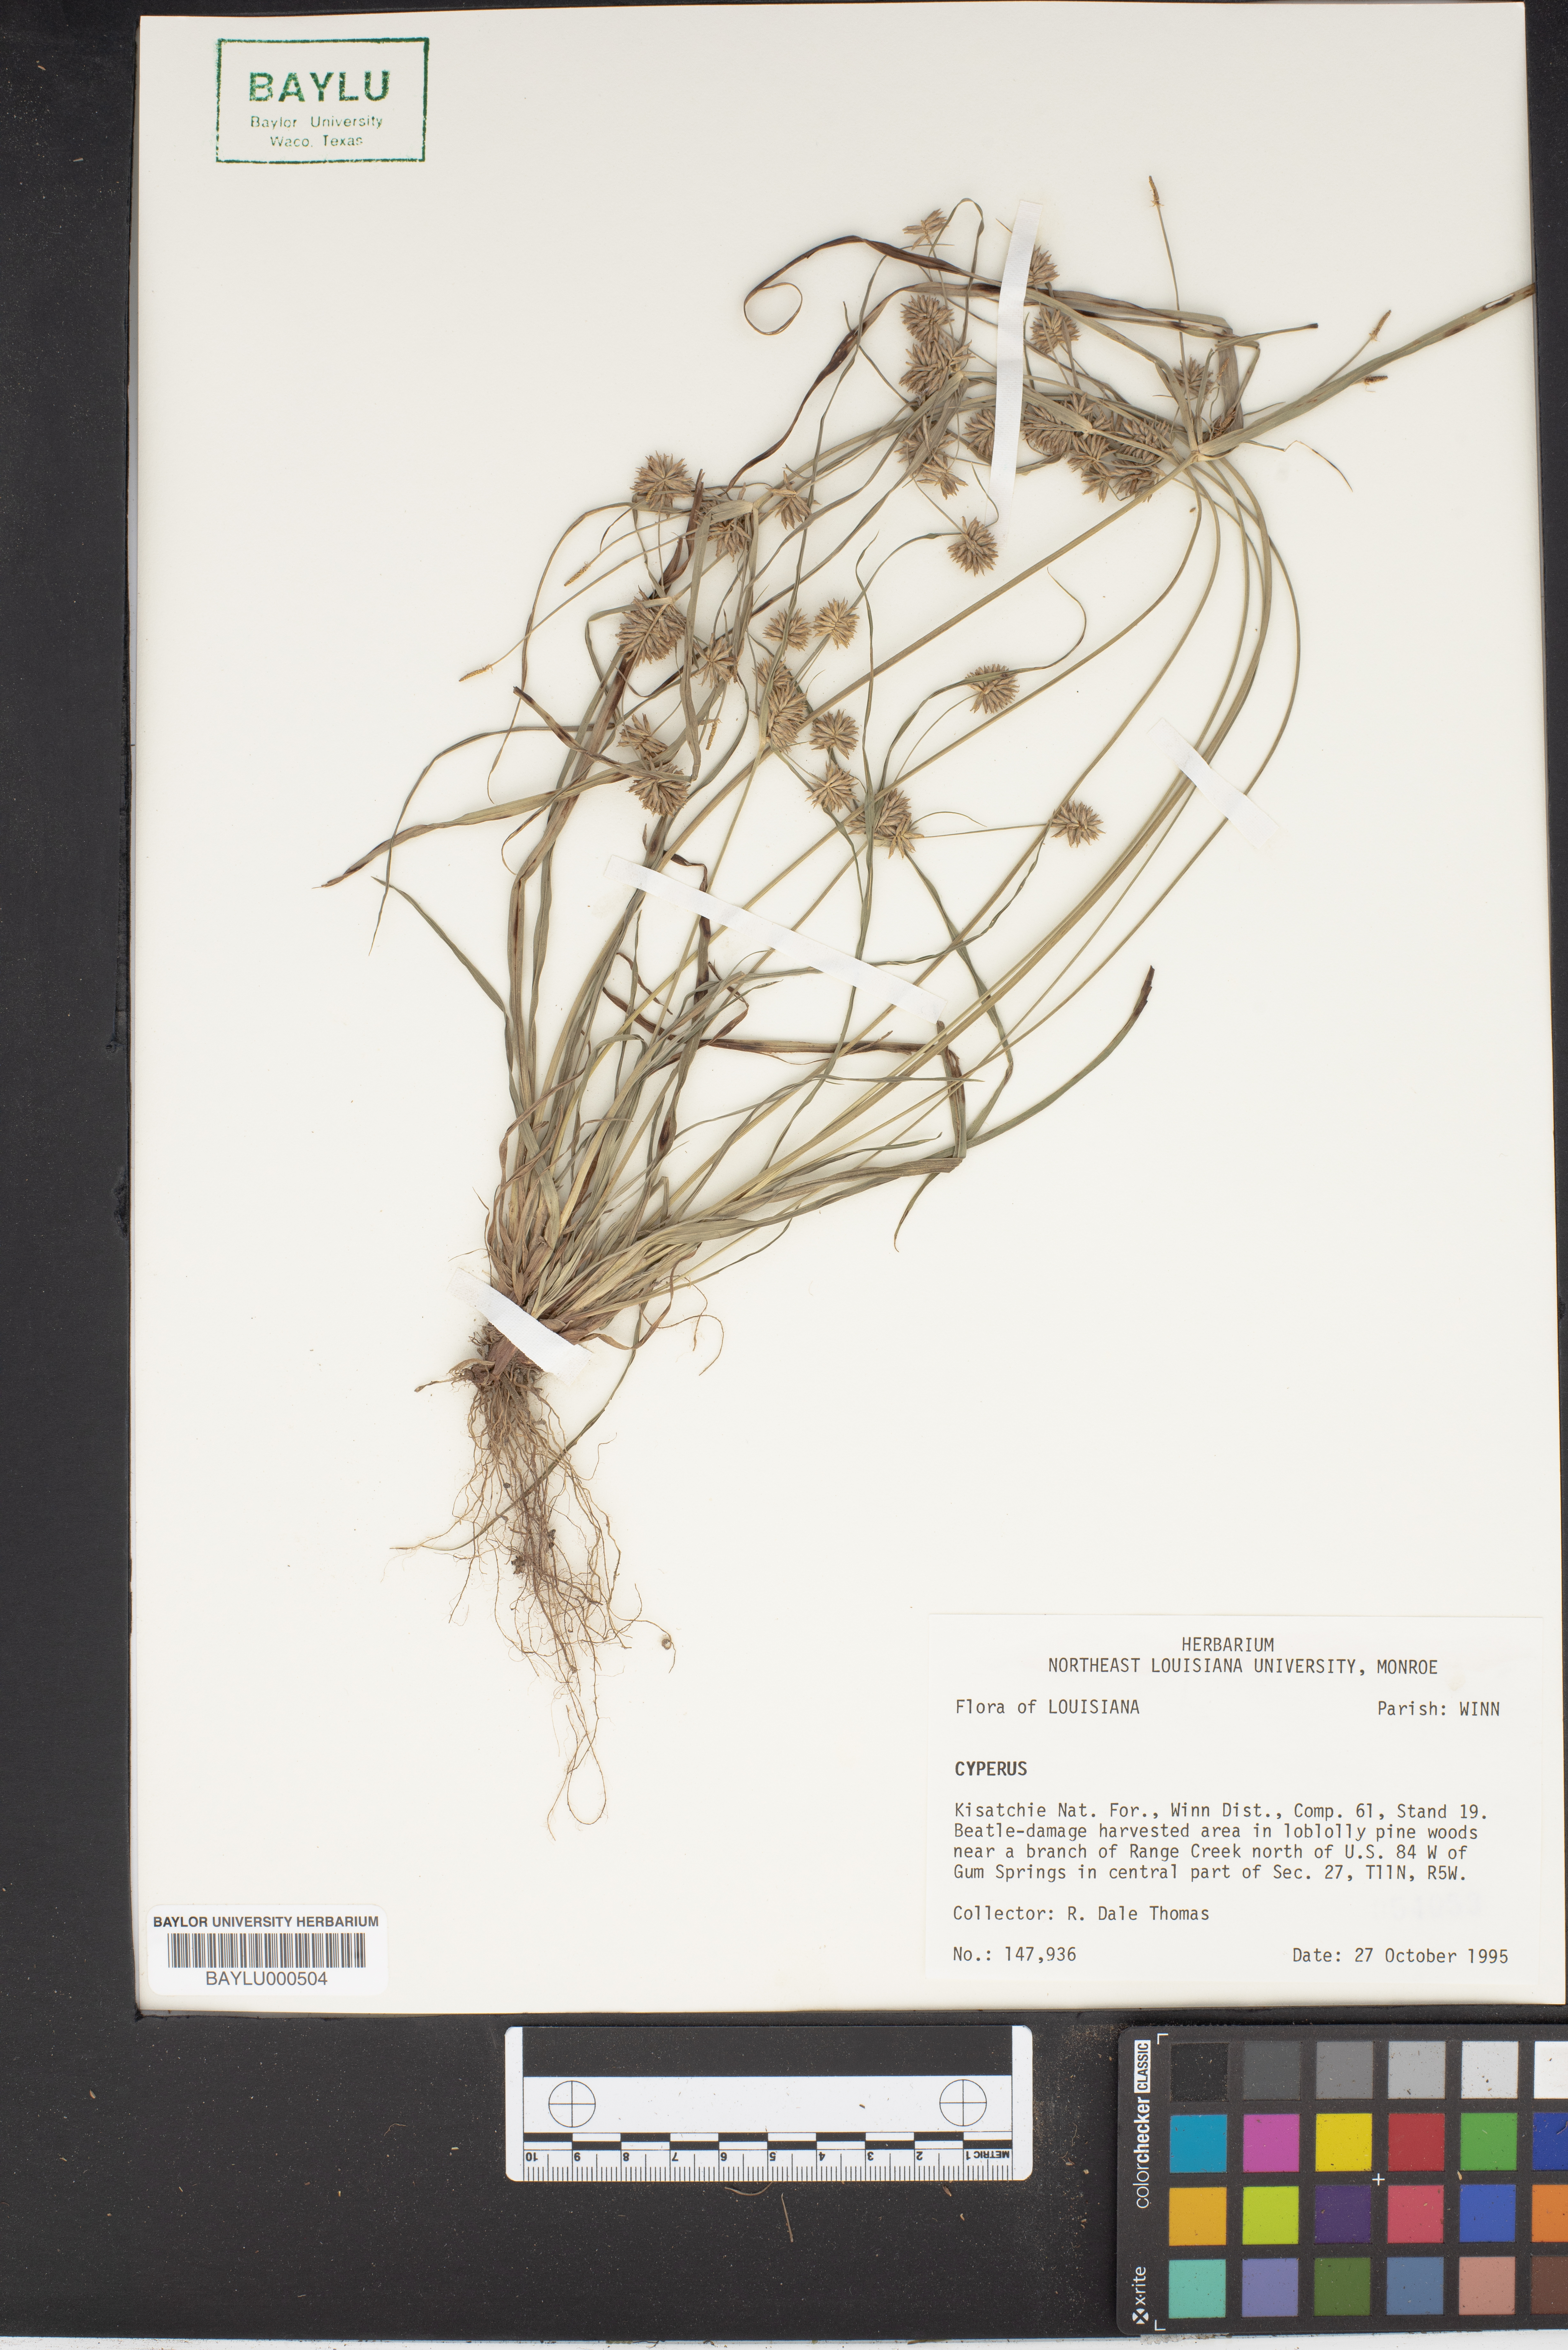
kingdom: Plantae
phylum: Tracheophyta
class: Liliopsida
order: Poales
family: Cyperaceae
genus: Cyperus
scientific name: Cyperus
